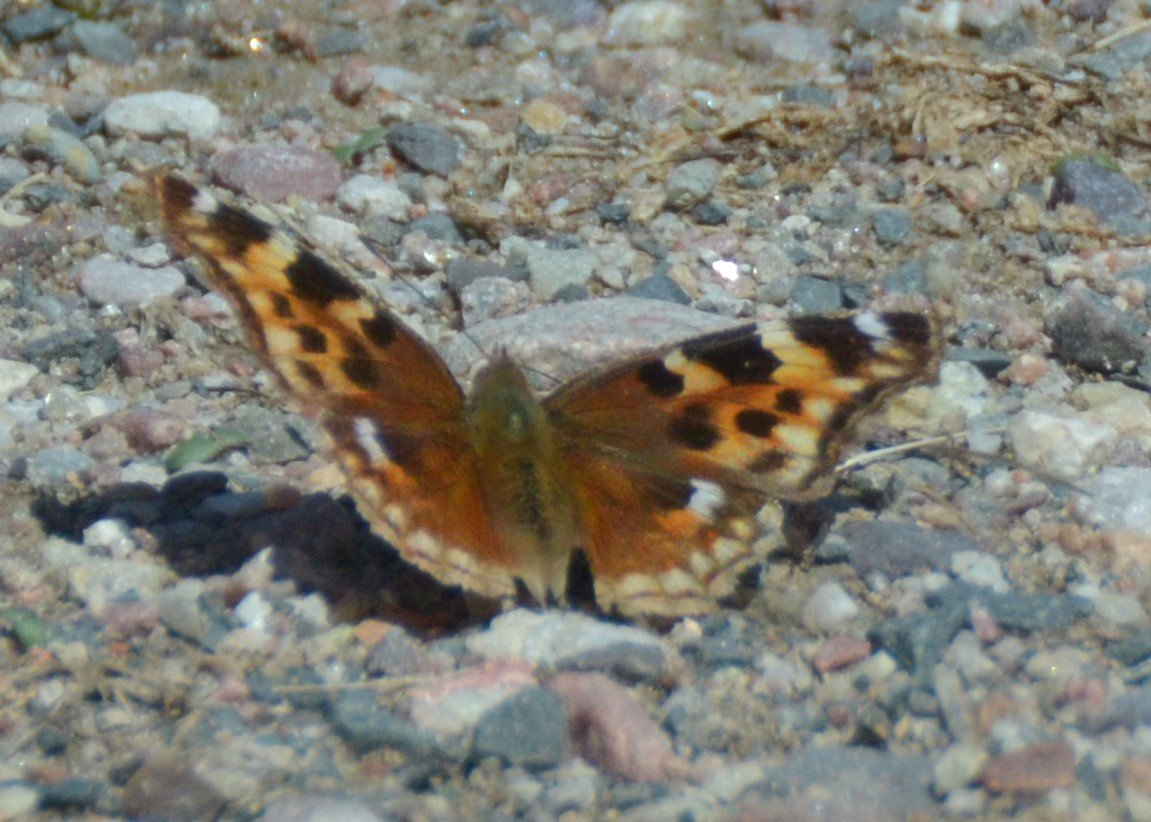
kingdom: Animalia
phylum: Arthropoda
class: Insecta
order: Lepidoptera
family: Nymphalidae
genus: Polygonia
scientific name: Polygonia vaualbum
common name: Compton Tortoiseshell
